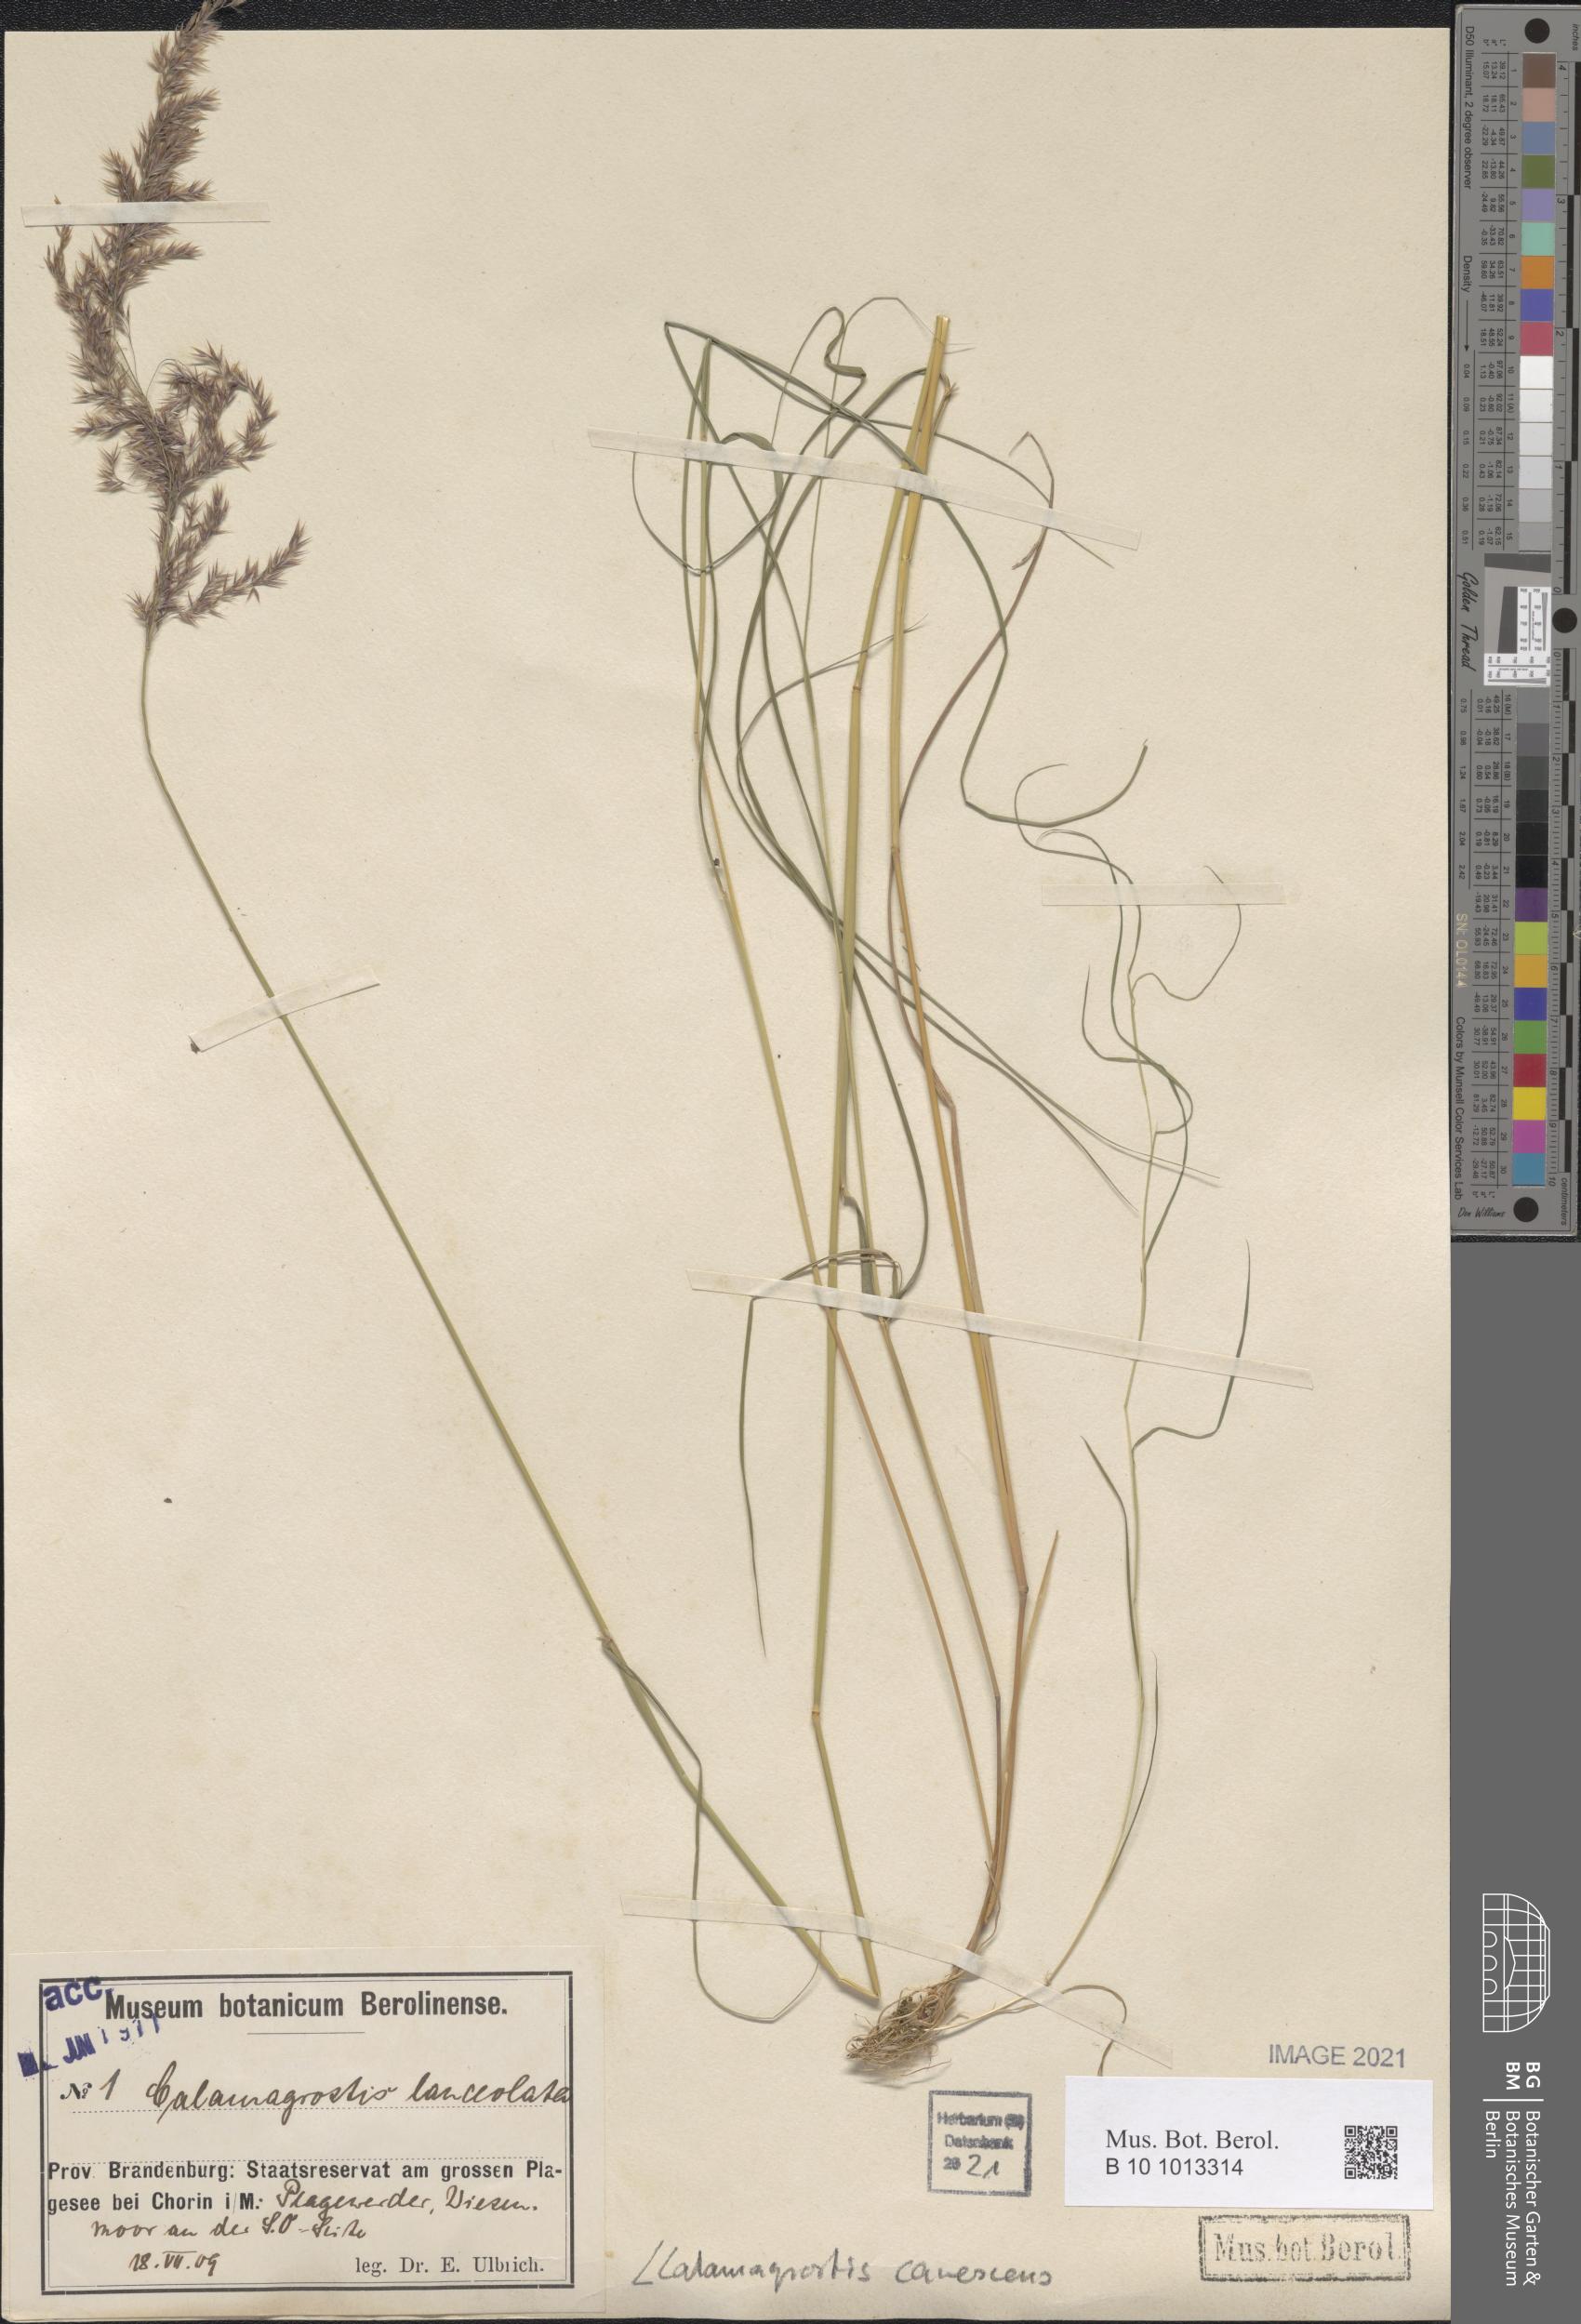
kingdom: Plantae
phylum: Tracheophyta
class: Liliopsida
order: Poales
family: Poaceae
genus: Calamagrostis
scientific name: Calamagrostis canescens
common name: Purple small-reed
